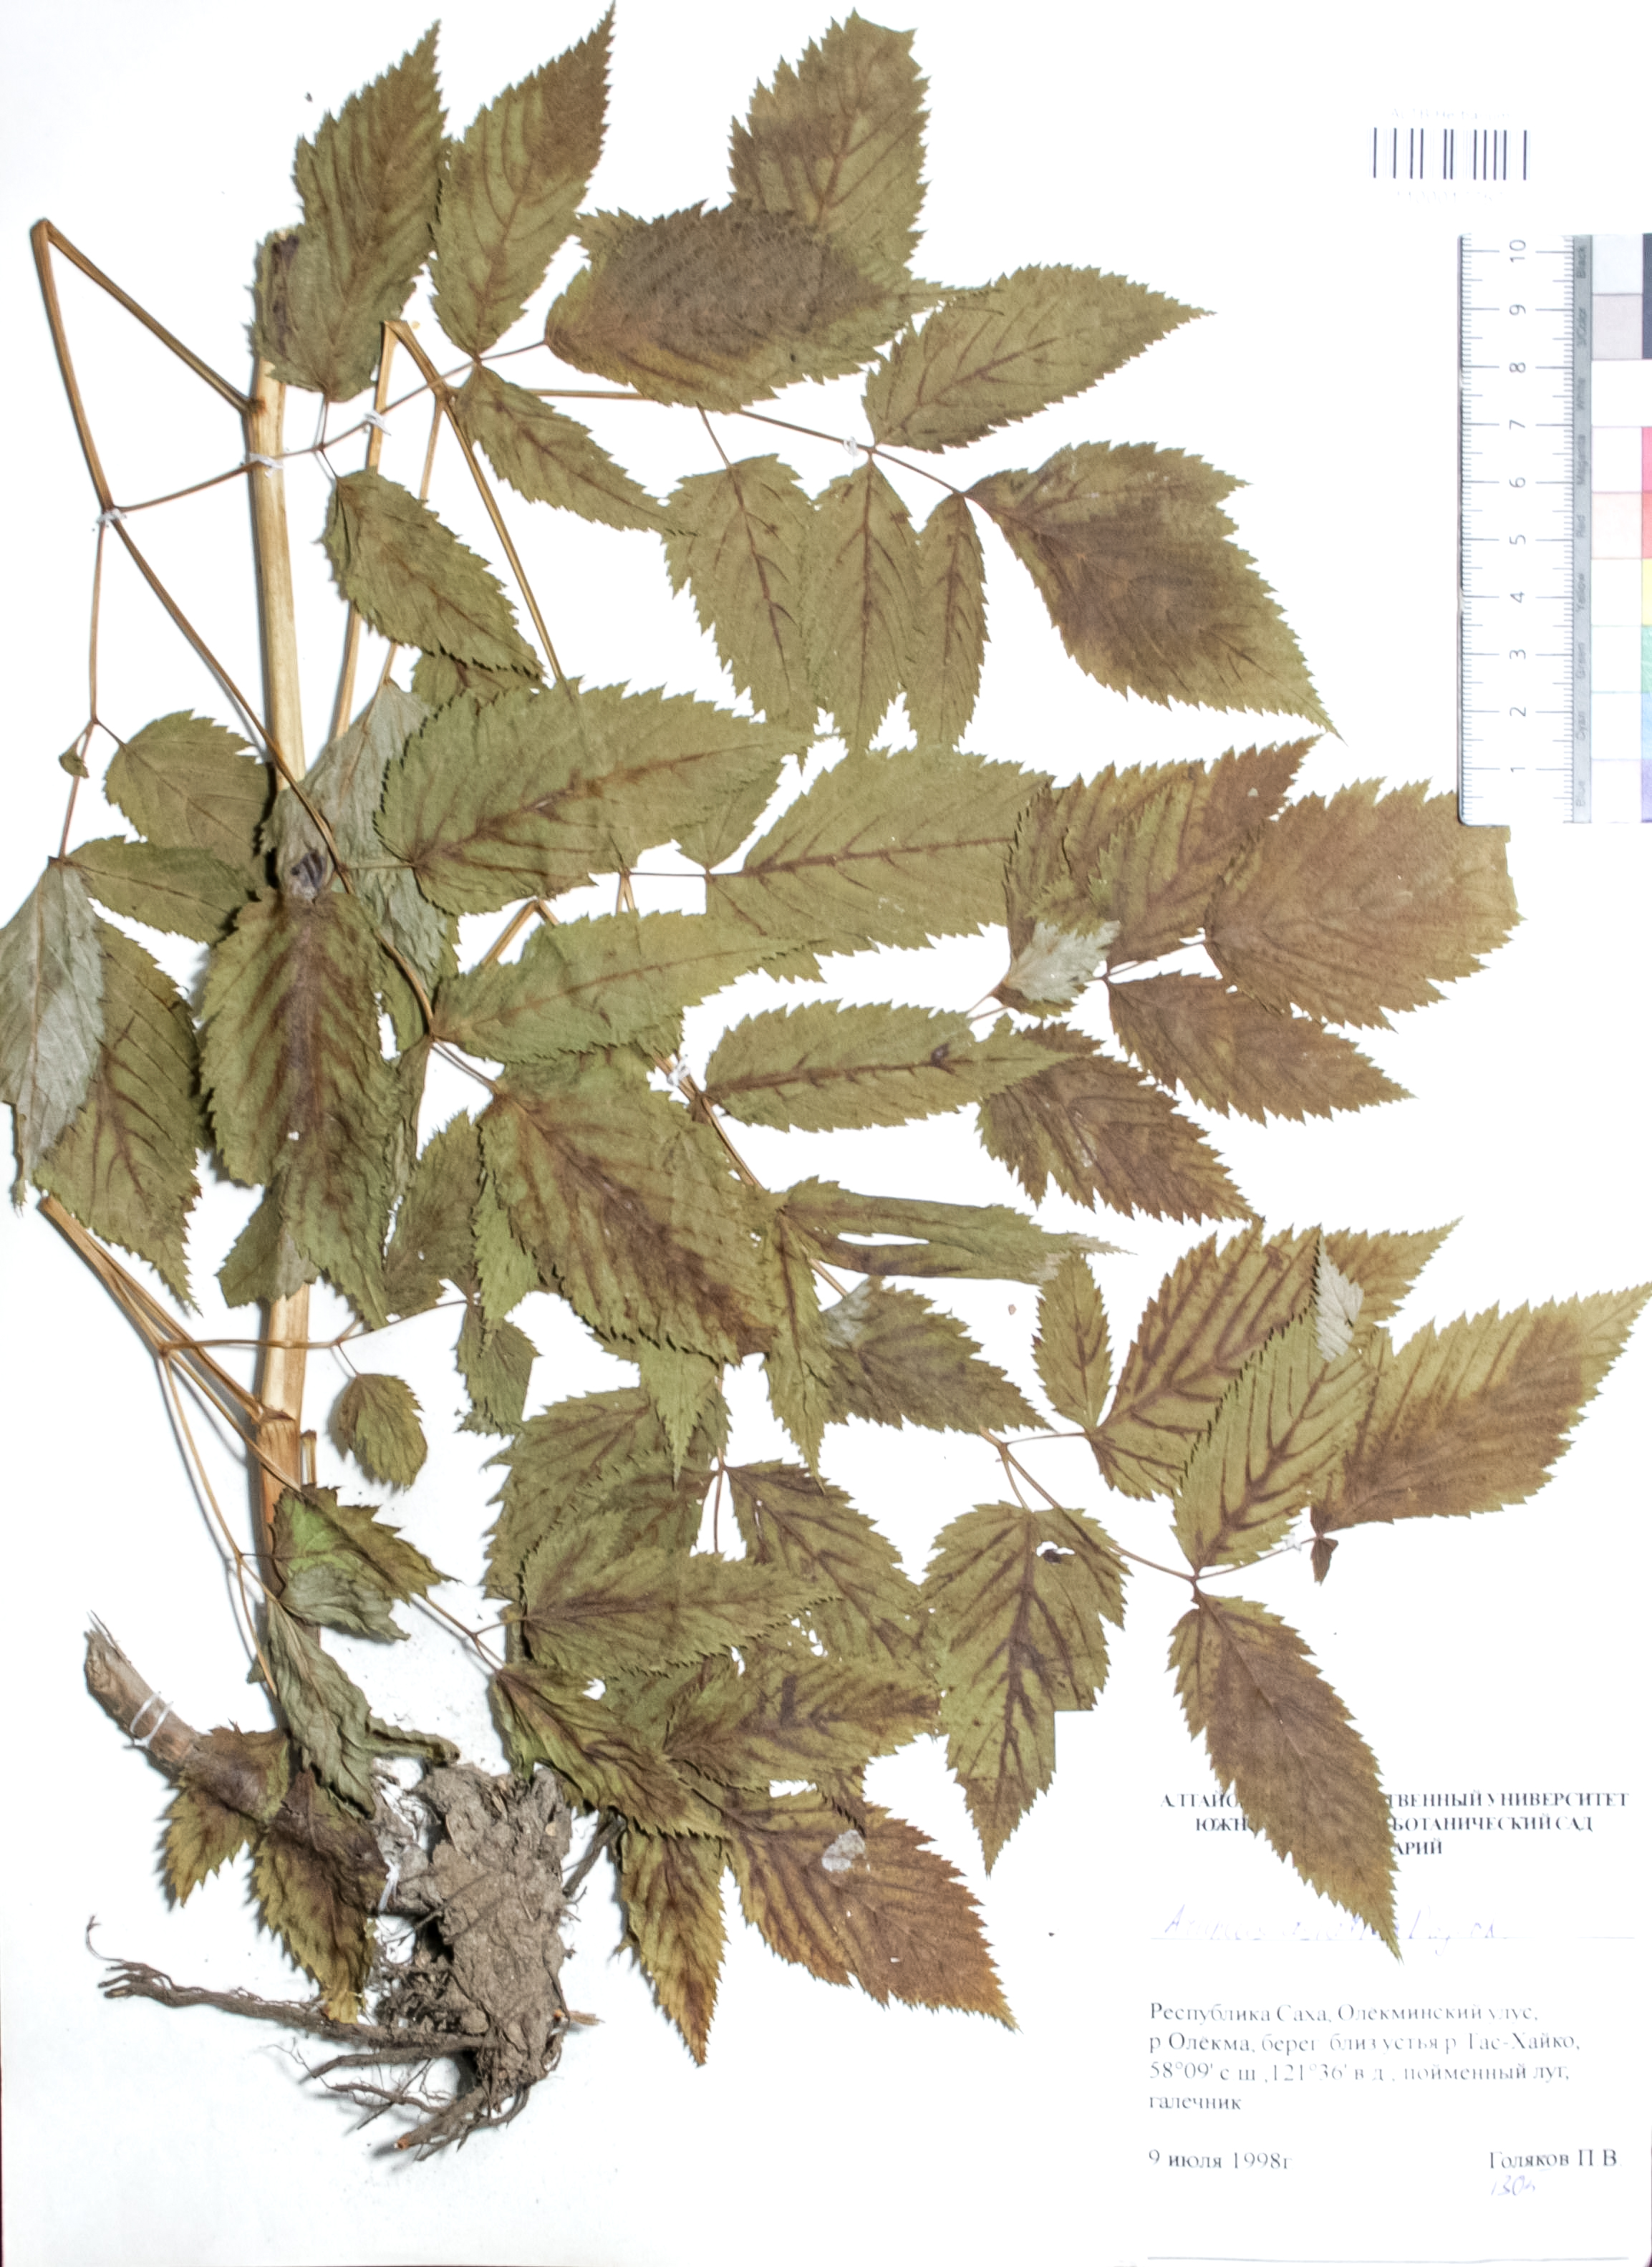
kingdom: Plantae
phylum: Tracheophyta
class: Magnoliopsida
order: Rosales
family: Rosaceae
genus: Aruncus
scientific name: Aruncus sylvester
